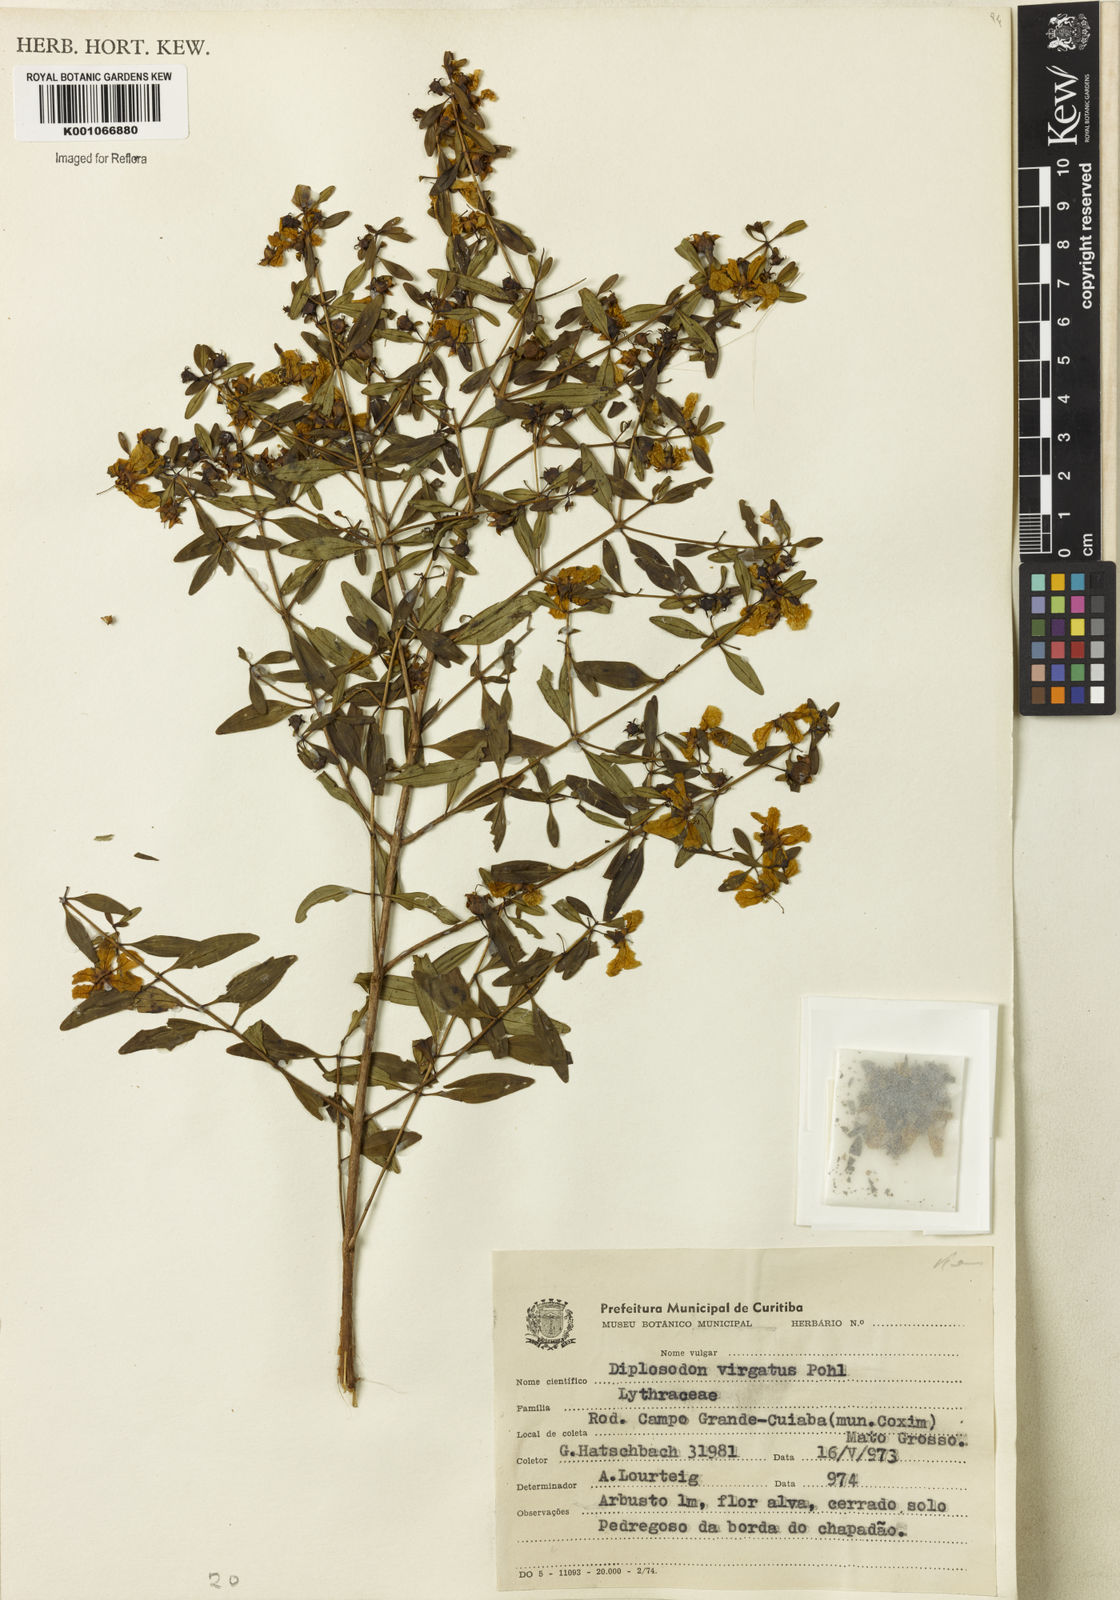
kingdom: Plantae
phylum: Tracheophyta
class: Magnoliopsida
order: Myrtales
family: Lythraceae
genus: Diplusodon
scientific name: Diplusodon virgatus
